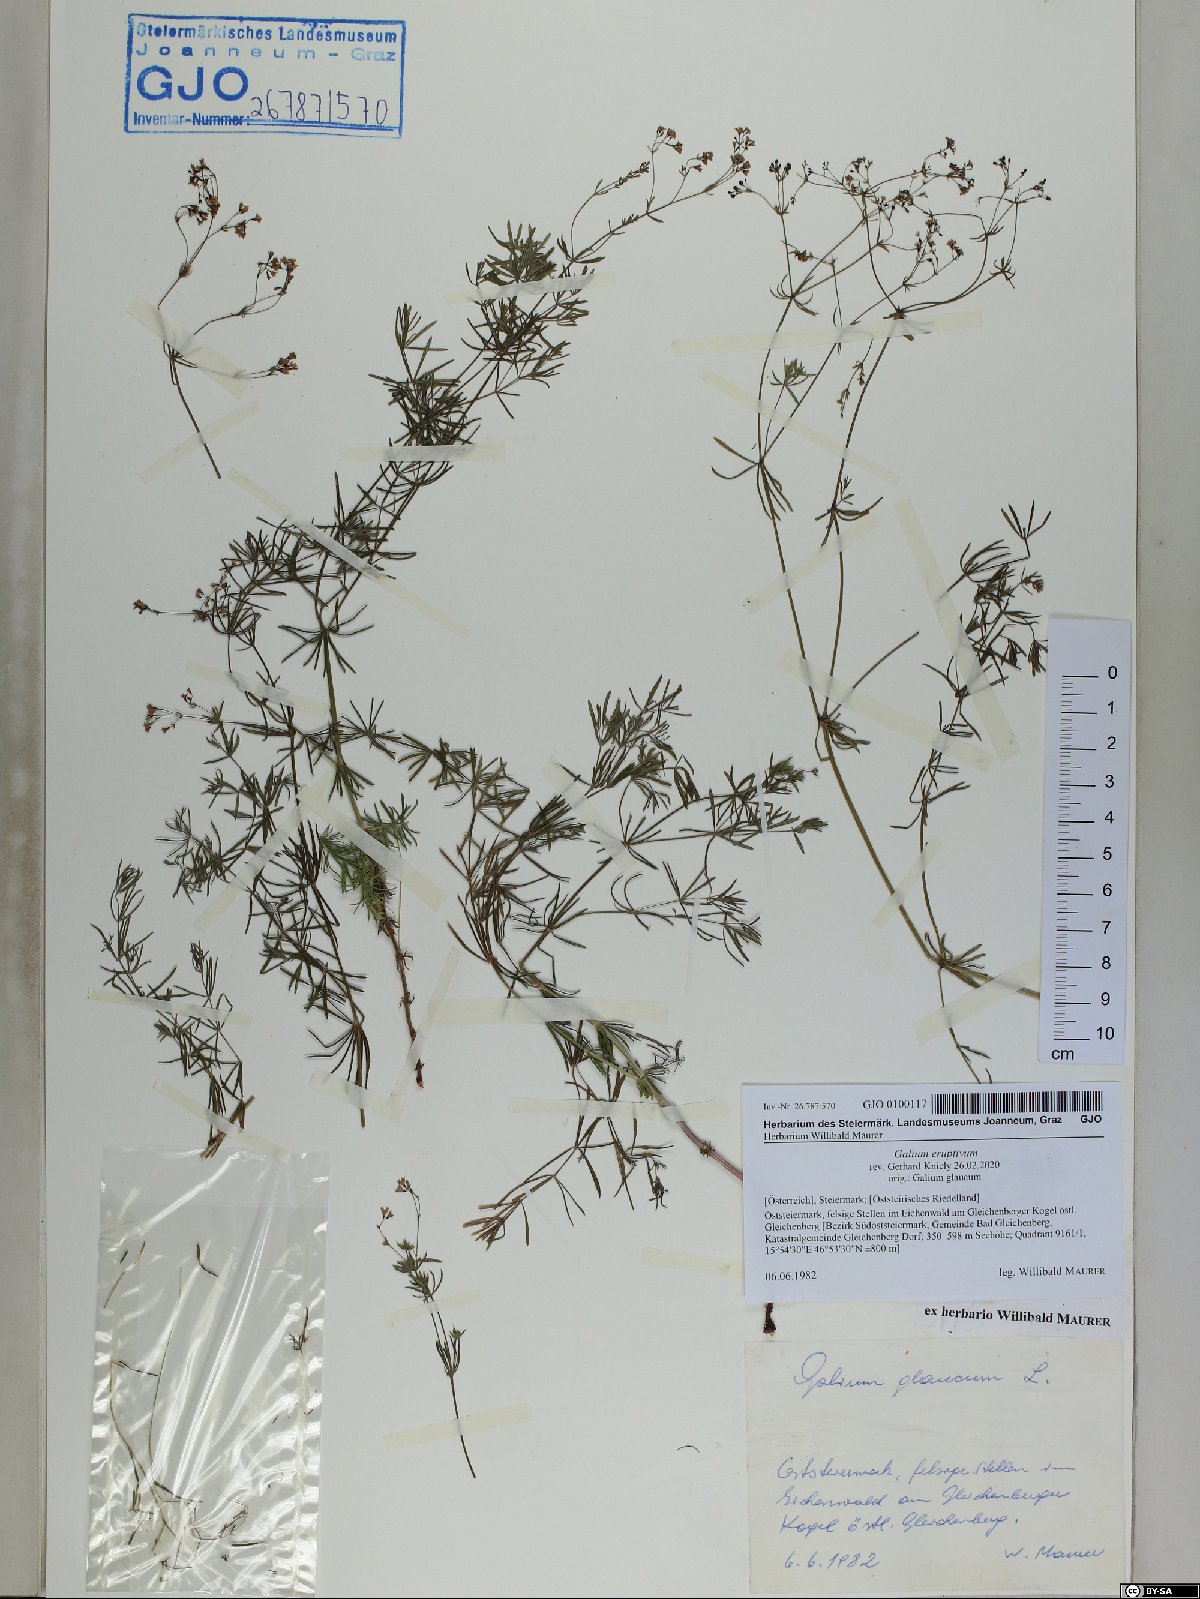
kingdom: Plantae
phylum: Tracheophyta
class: Magnoliopsida
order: Gentianales
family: Rubiaceae
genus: Galium
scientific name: Galium eruptivum
